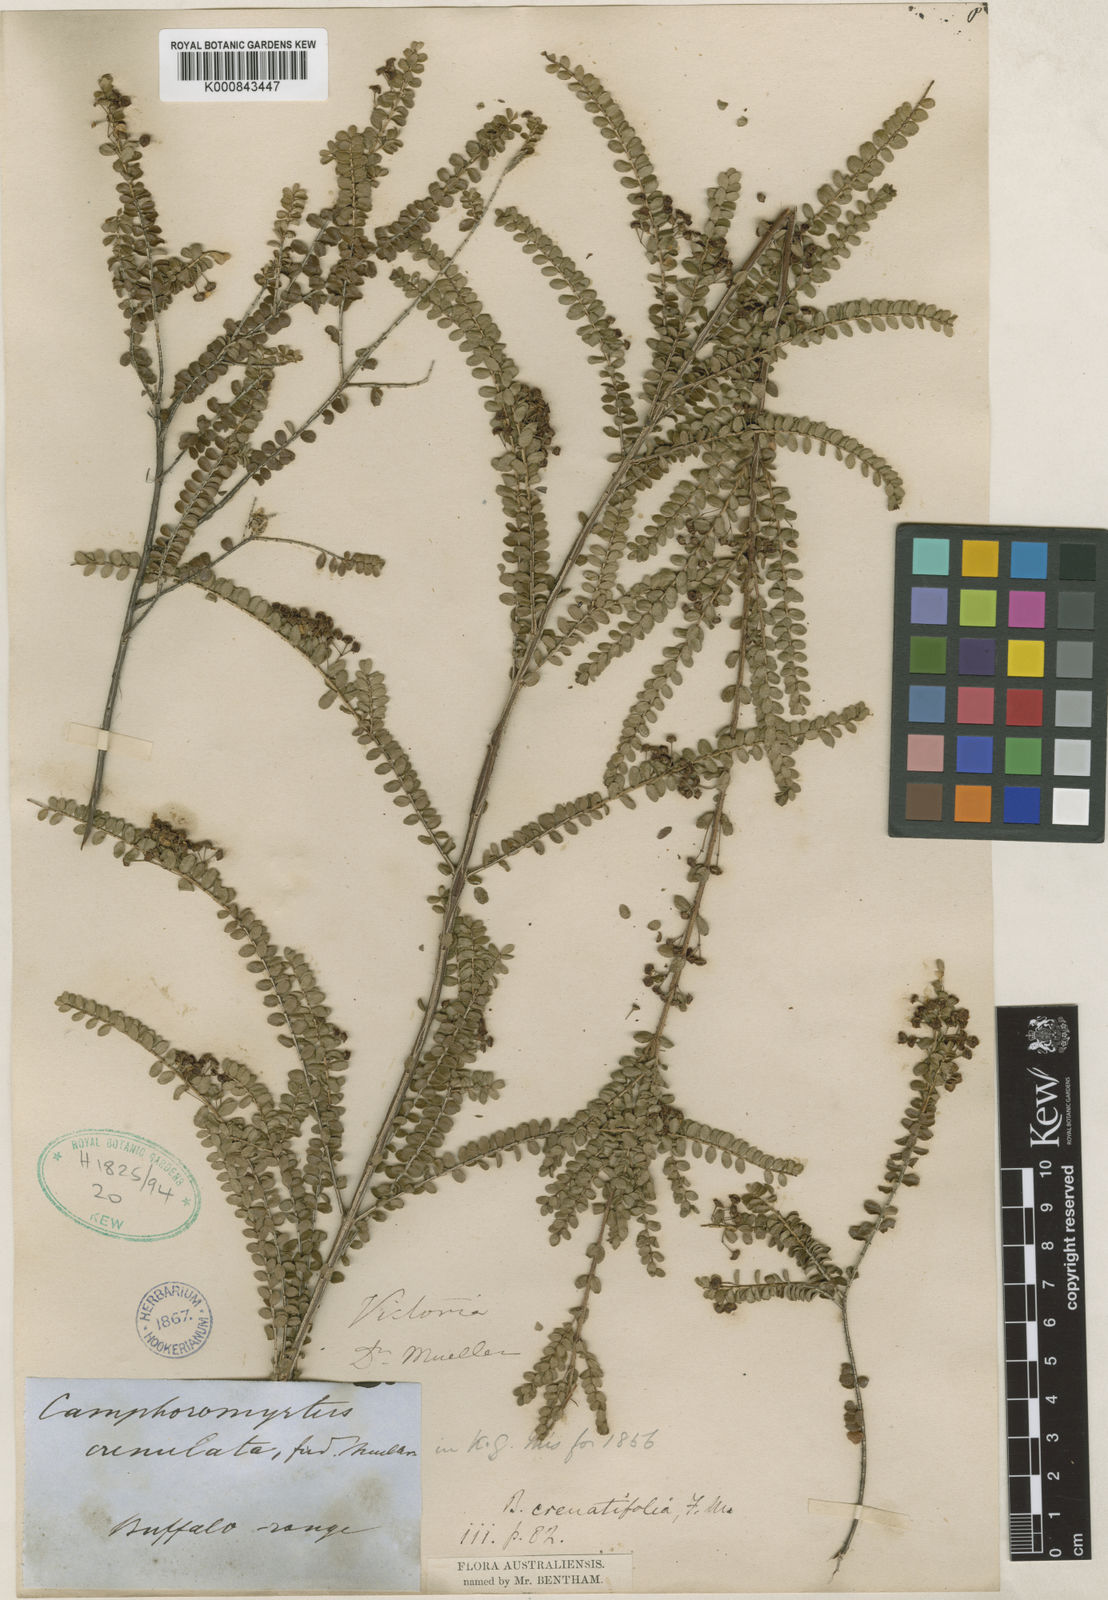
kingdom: Plantae
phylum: Tracheophyta
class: Magnoliopsida
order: Myrtales
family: Myrtaceae
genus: Sannantha
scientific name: Sannantha crenulata
